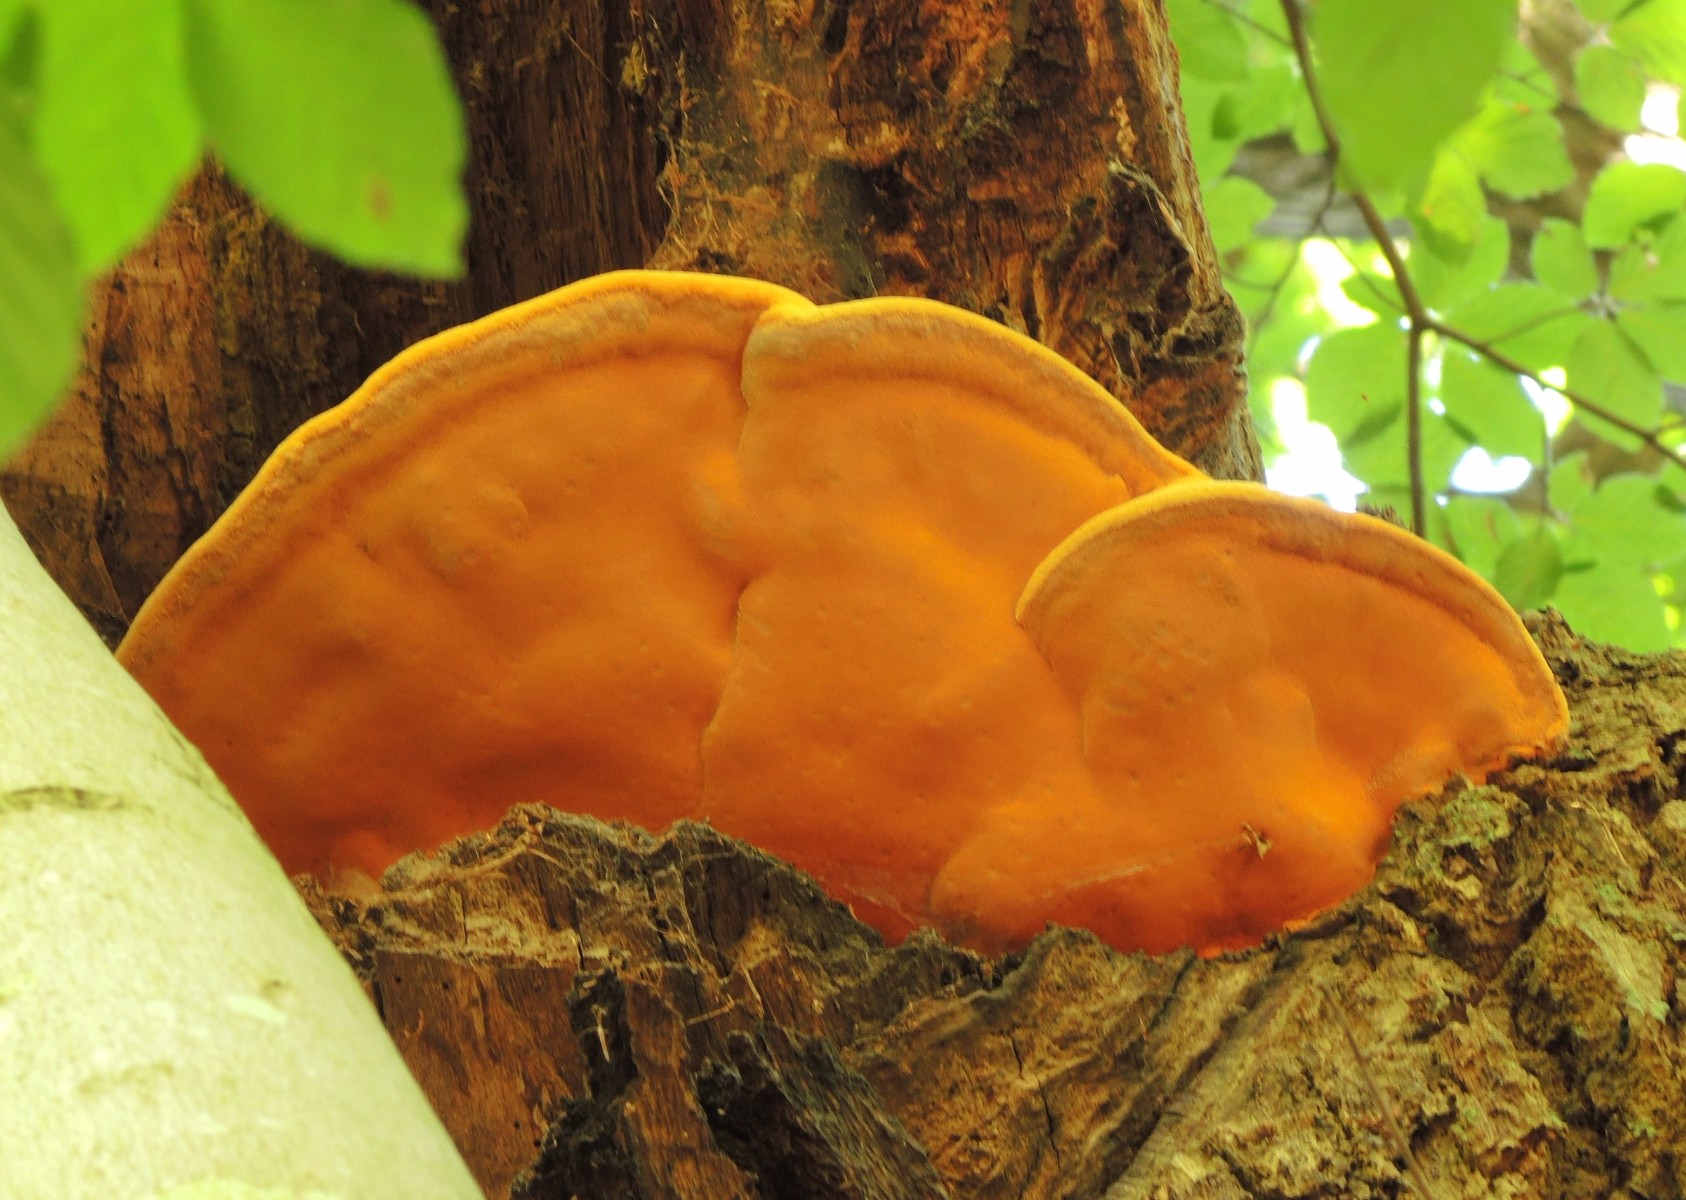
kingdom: Fungi
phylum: Basidiomycota
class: Agaricomycetes
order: Polyporales
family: Phanerochaetaceae
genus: Hapalopilus
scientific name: Hapalopilus croceus
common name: safrangul pragtporesvamp
